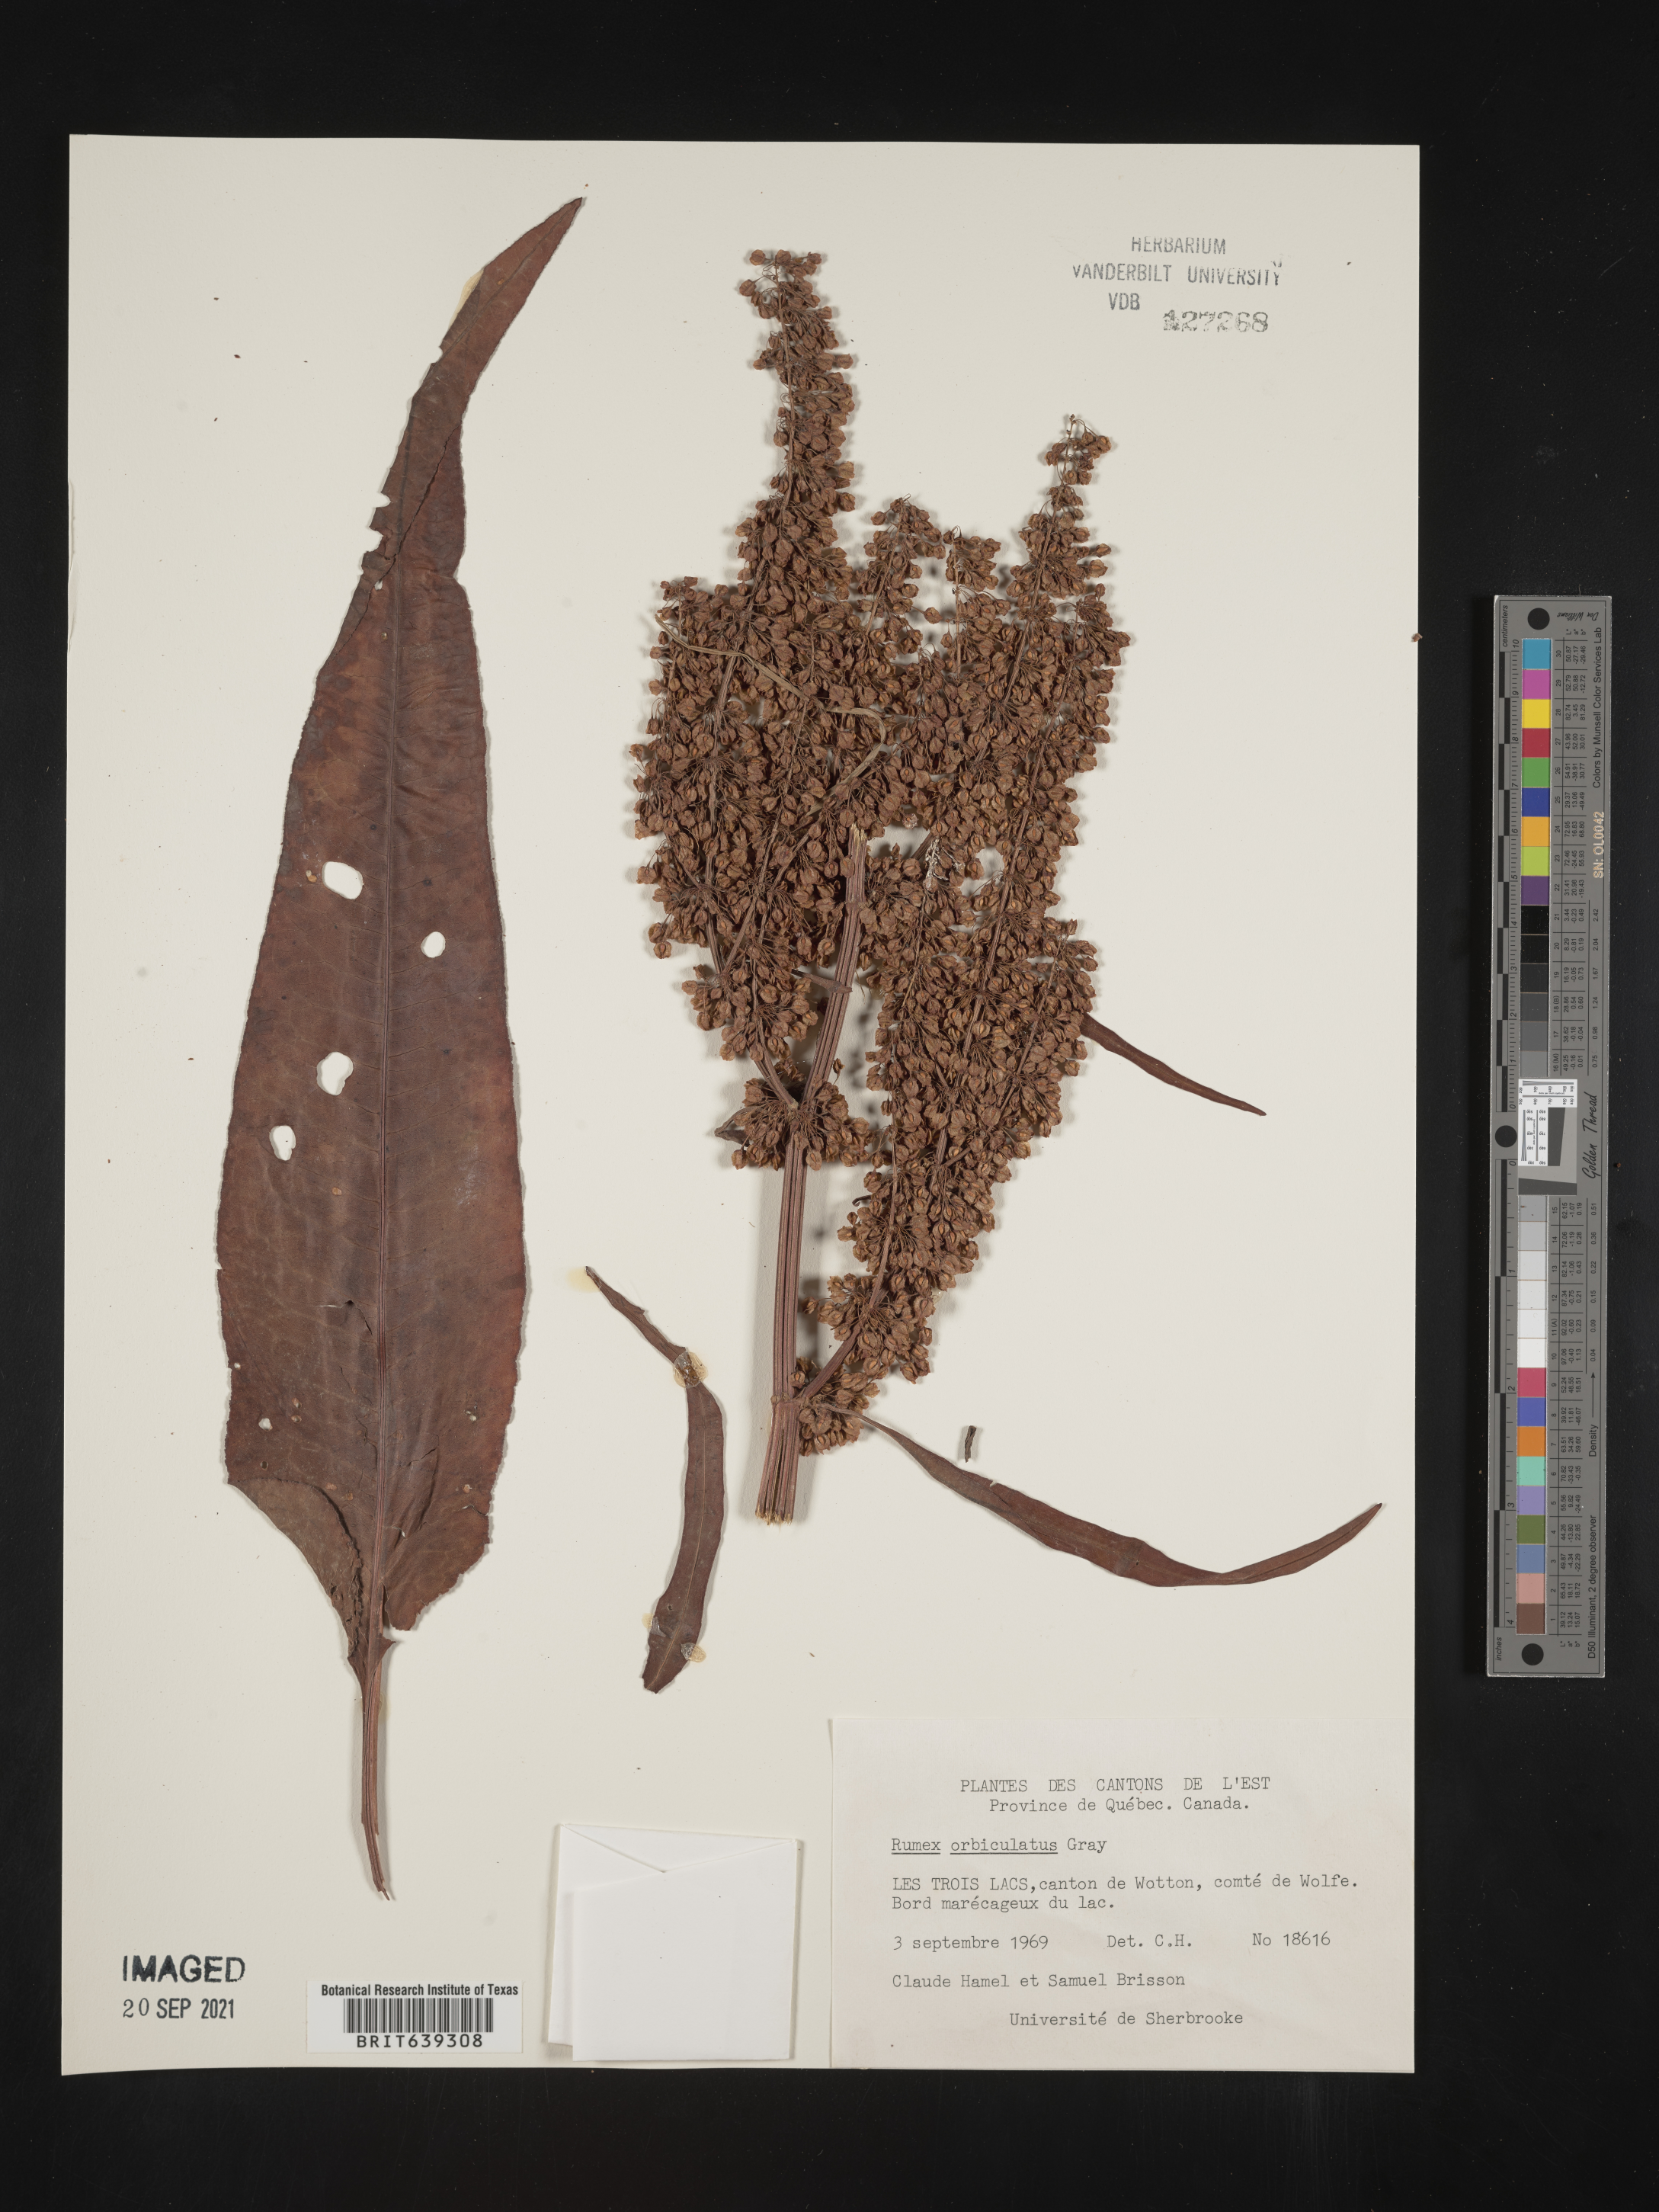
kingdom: Plantae
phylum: Tracheophyta
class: Magnoliopsida
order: Caryophyllales
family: Polygonaceae
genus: Rumex
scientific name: Rumex
